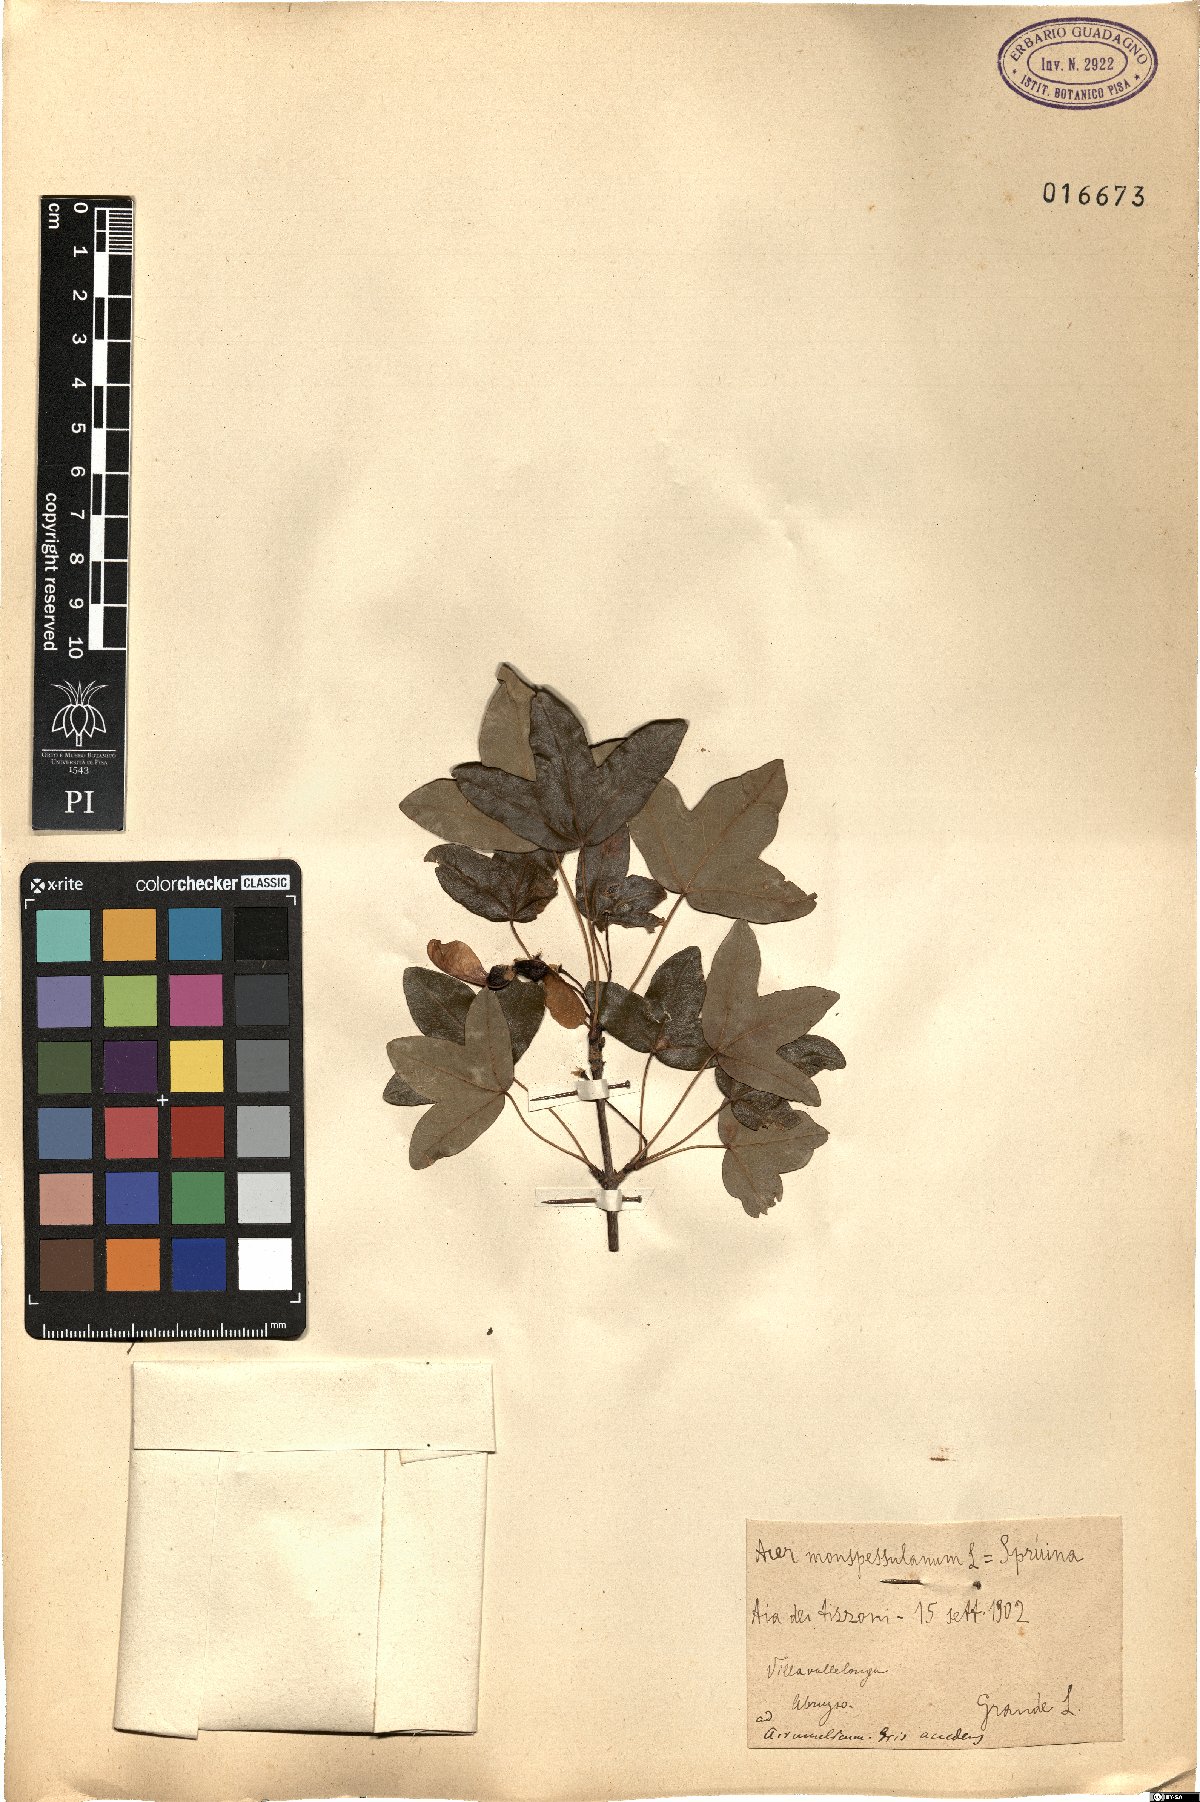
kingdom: Plantae
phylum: Tracheophyta
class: Magnoliopsida
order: Sapindales
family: Sapindaceae
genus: Acer
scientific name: Acer monspessulanum
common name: Montpellier maple
